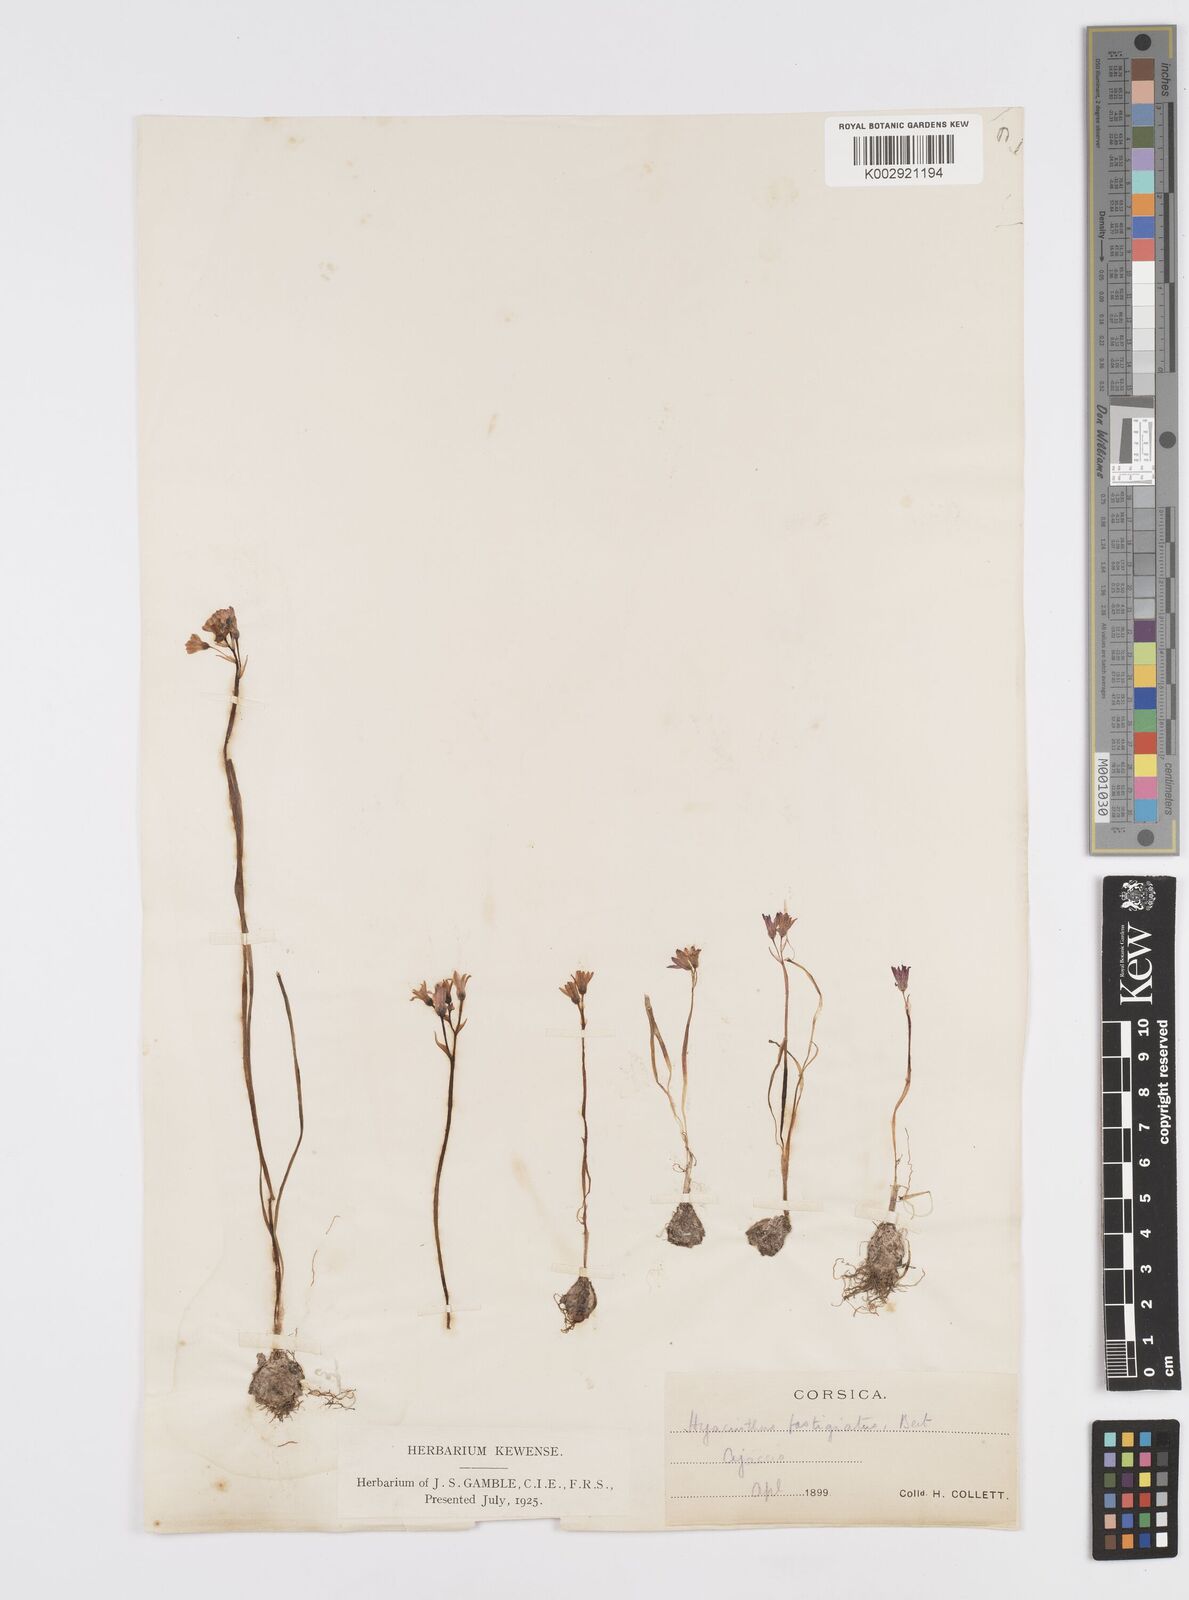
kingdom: Plantae
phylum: Tracheophyta
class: Liliopsida
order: Asparagales
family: Asparagaceae
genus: Brimeura
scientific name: Brimeura fastigiata
